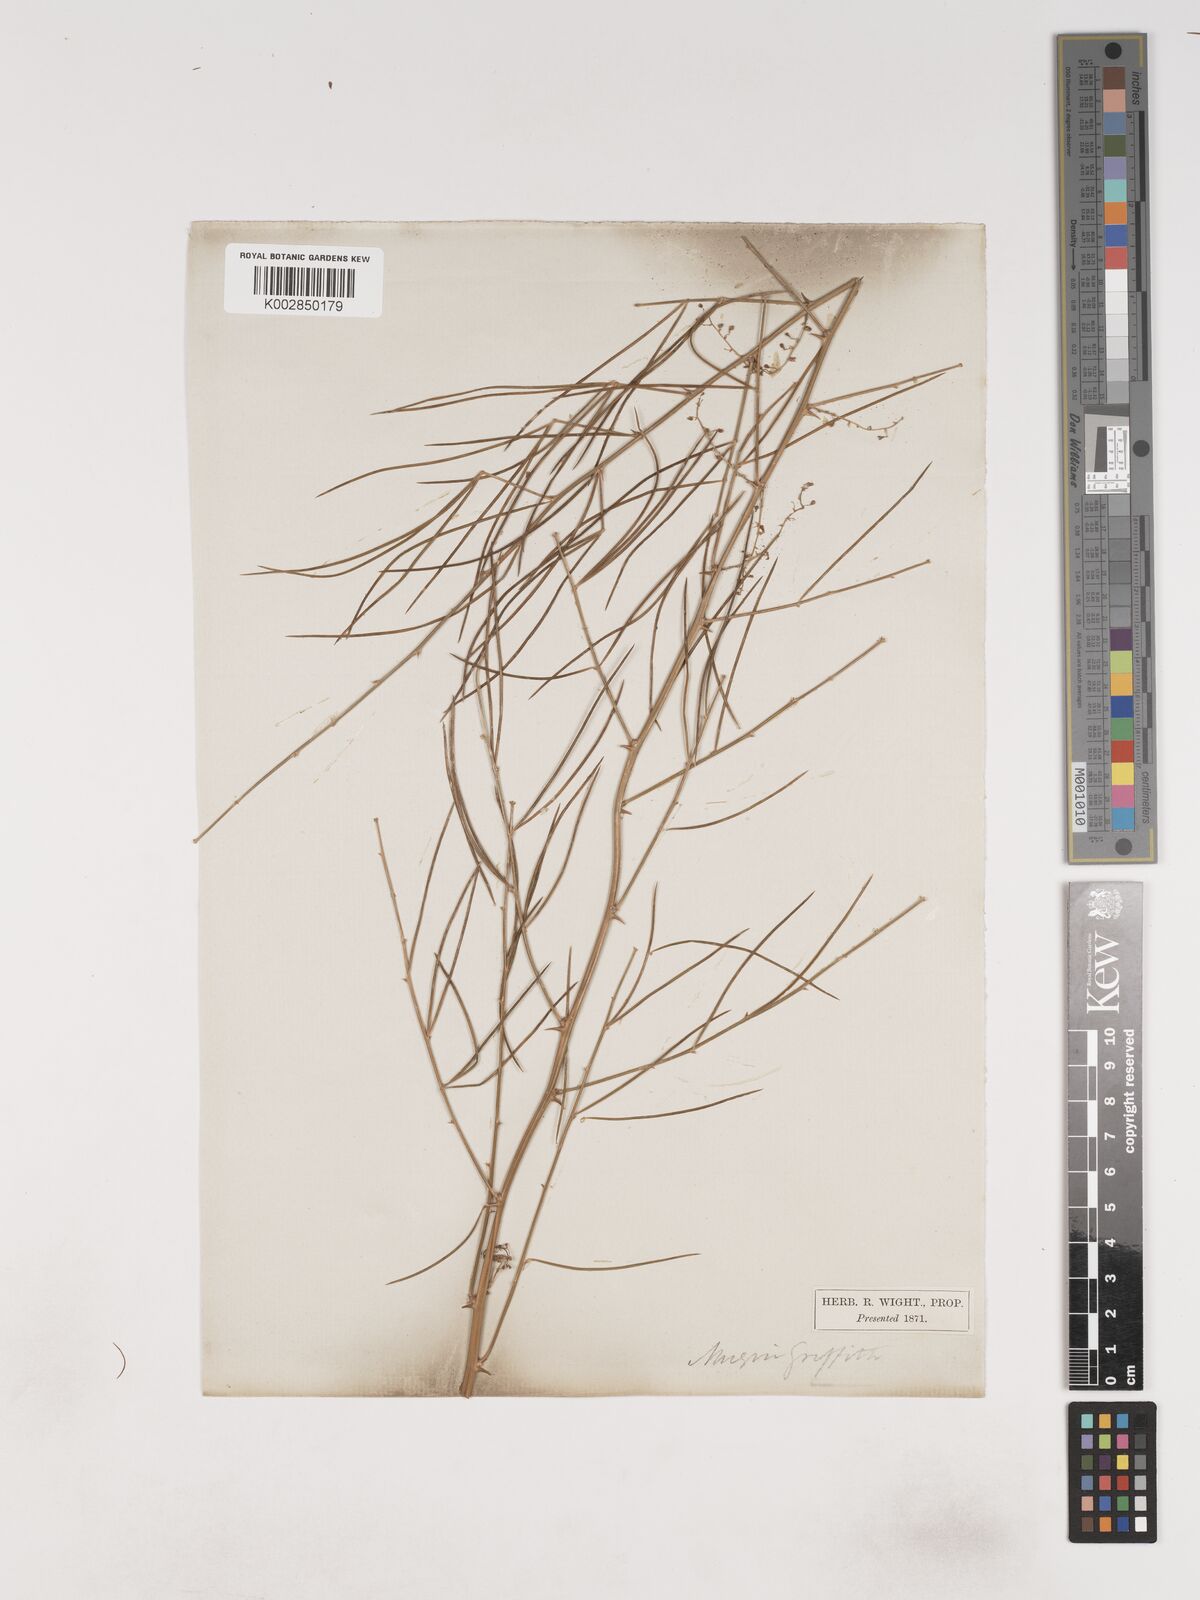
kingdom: Plantae
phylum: Tracheophyta
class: Liliopsida
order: Asparagales
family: Asparagaceae
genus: Asparagus
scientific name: Asparagus racemosus
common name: Asparagus-fern
